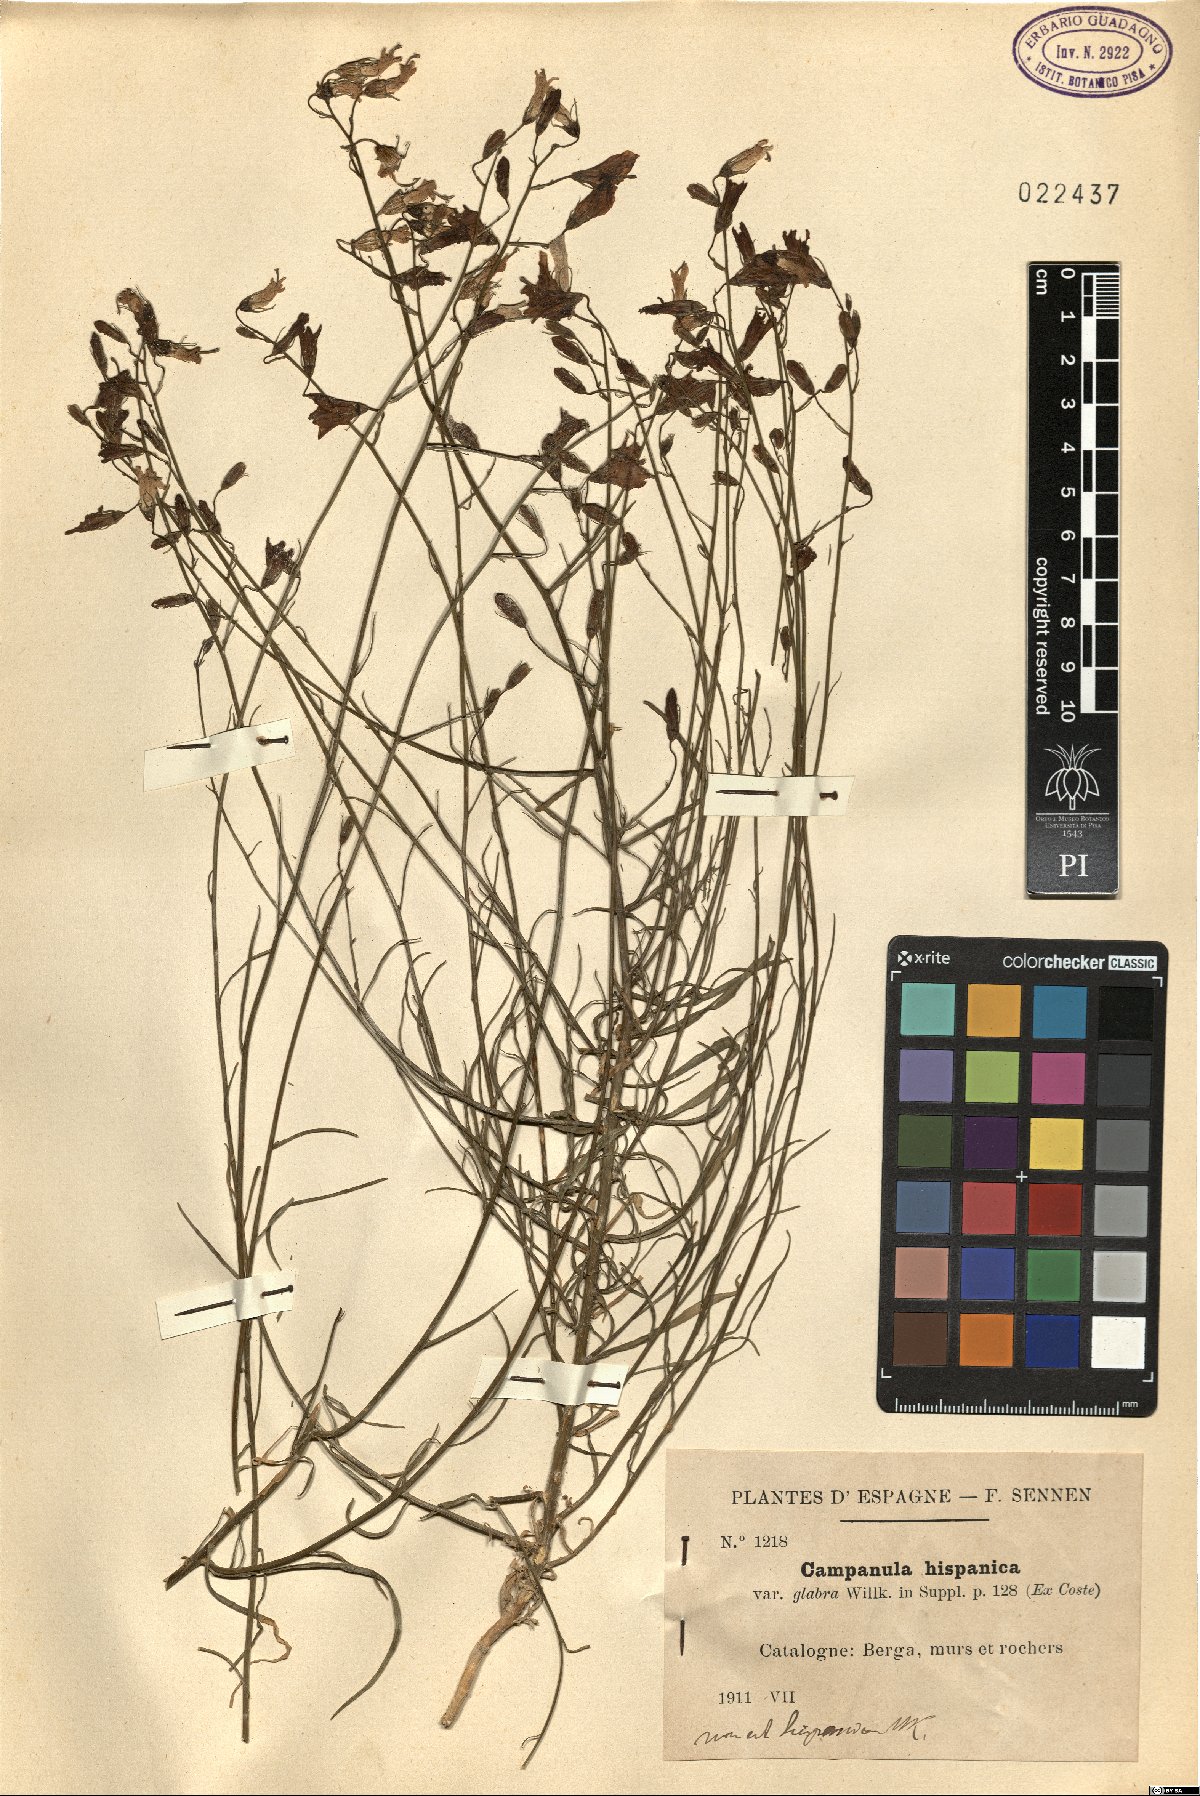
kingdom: Plantae
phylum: Tracheophyta
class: Magnoliopsida
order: Asterales
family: Campanulaceae
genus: Campanula
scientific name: Campanula hispanica
